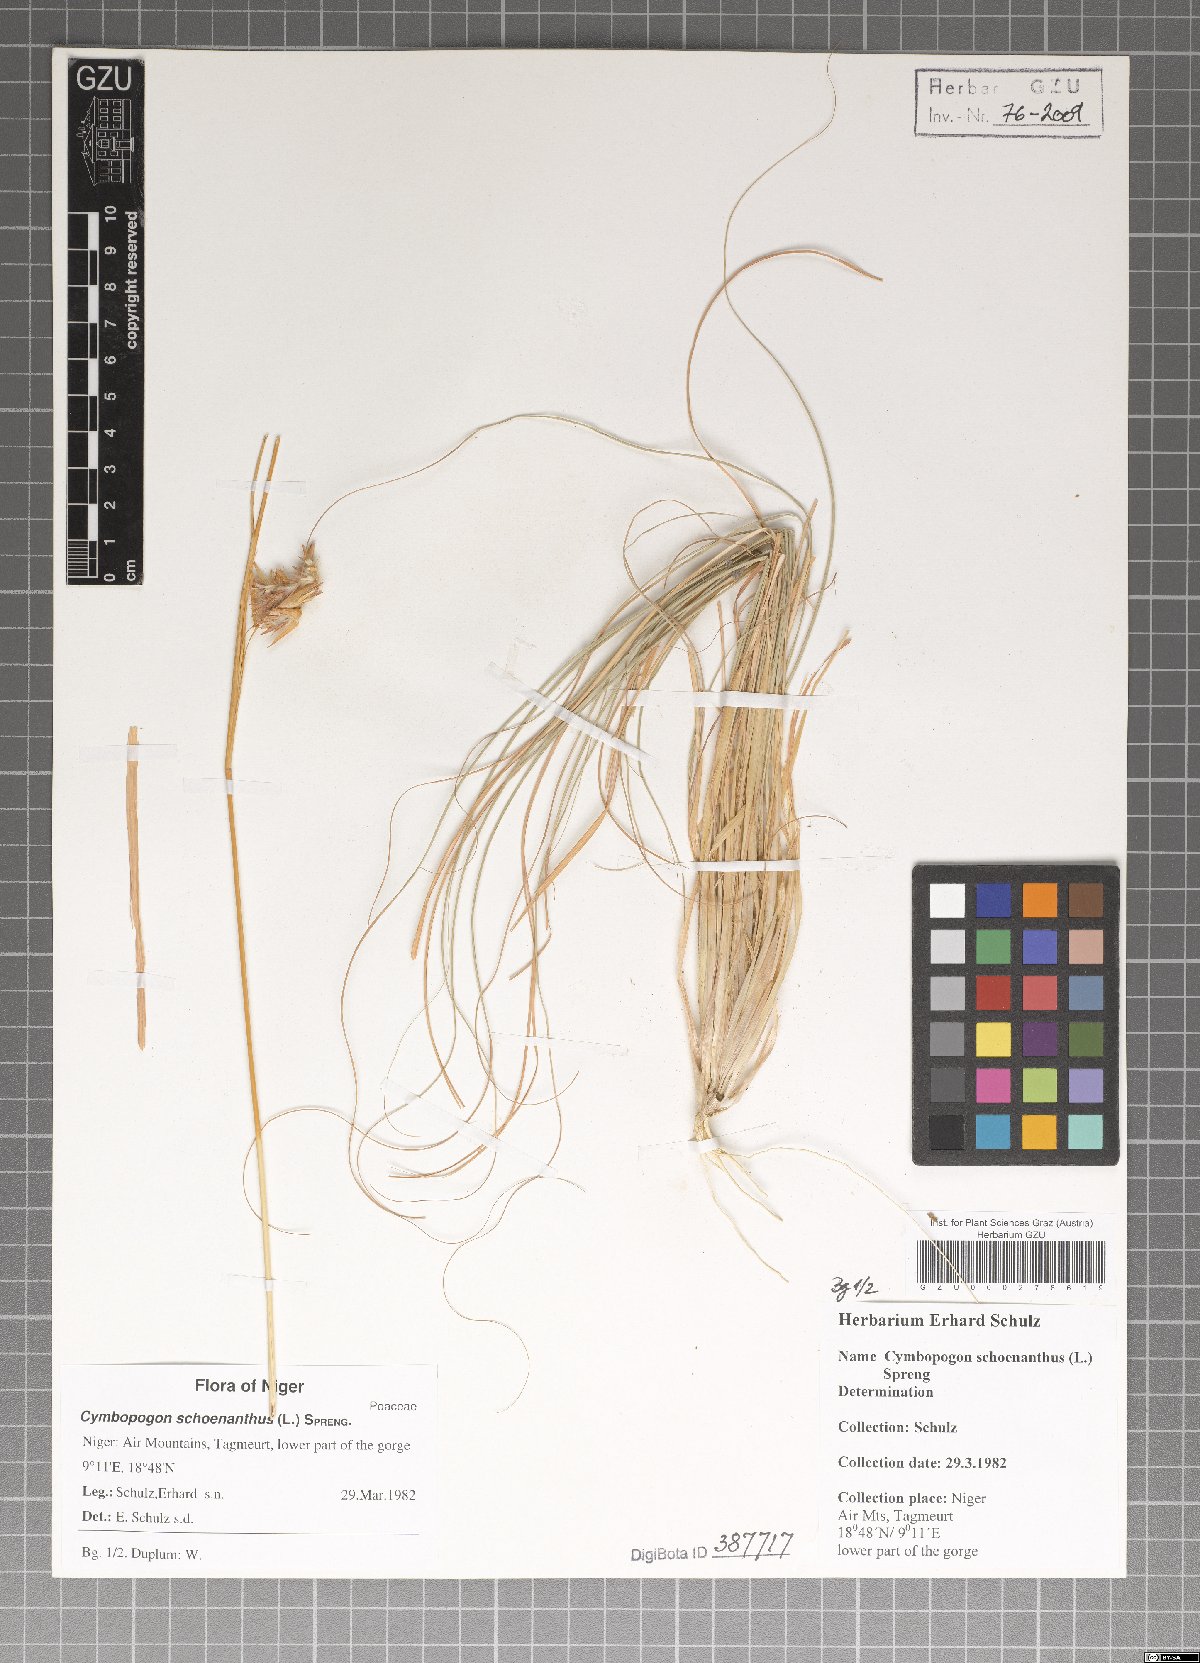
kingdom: Plantae
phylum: Tracheophyta
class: Liliopsida
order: Poales
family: Poaceae
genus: Cymbopogon
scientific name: Cymbopogon schoenanthus
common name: Geranium grass
